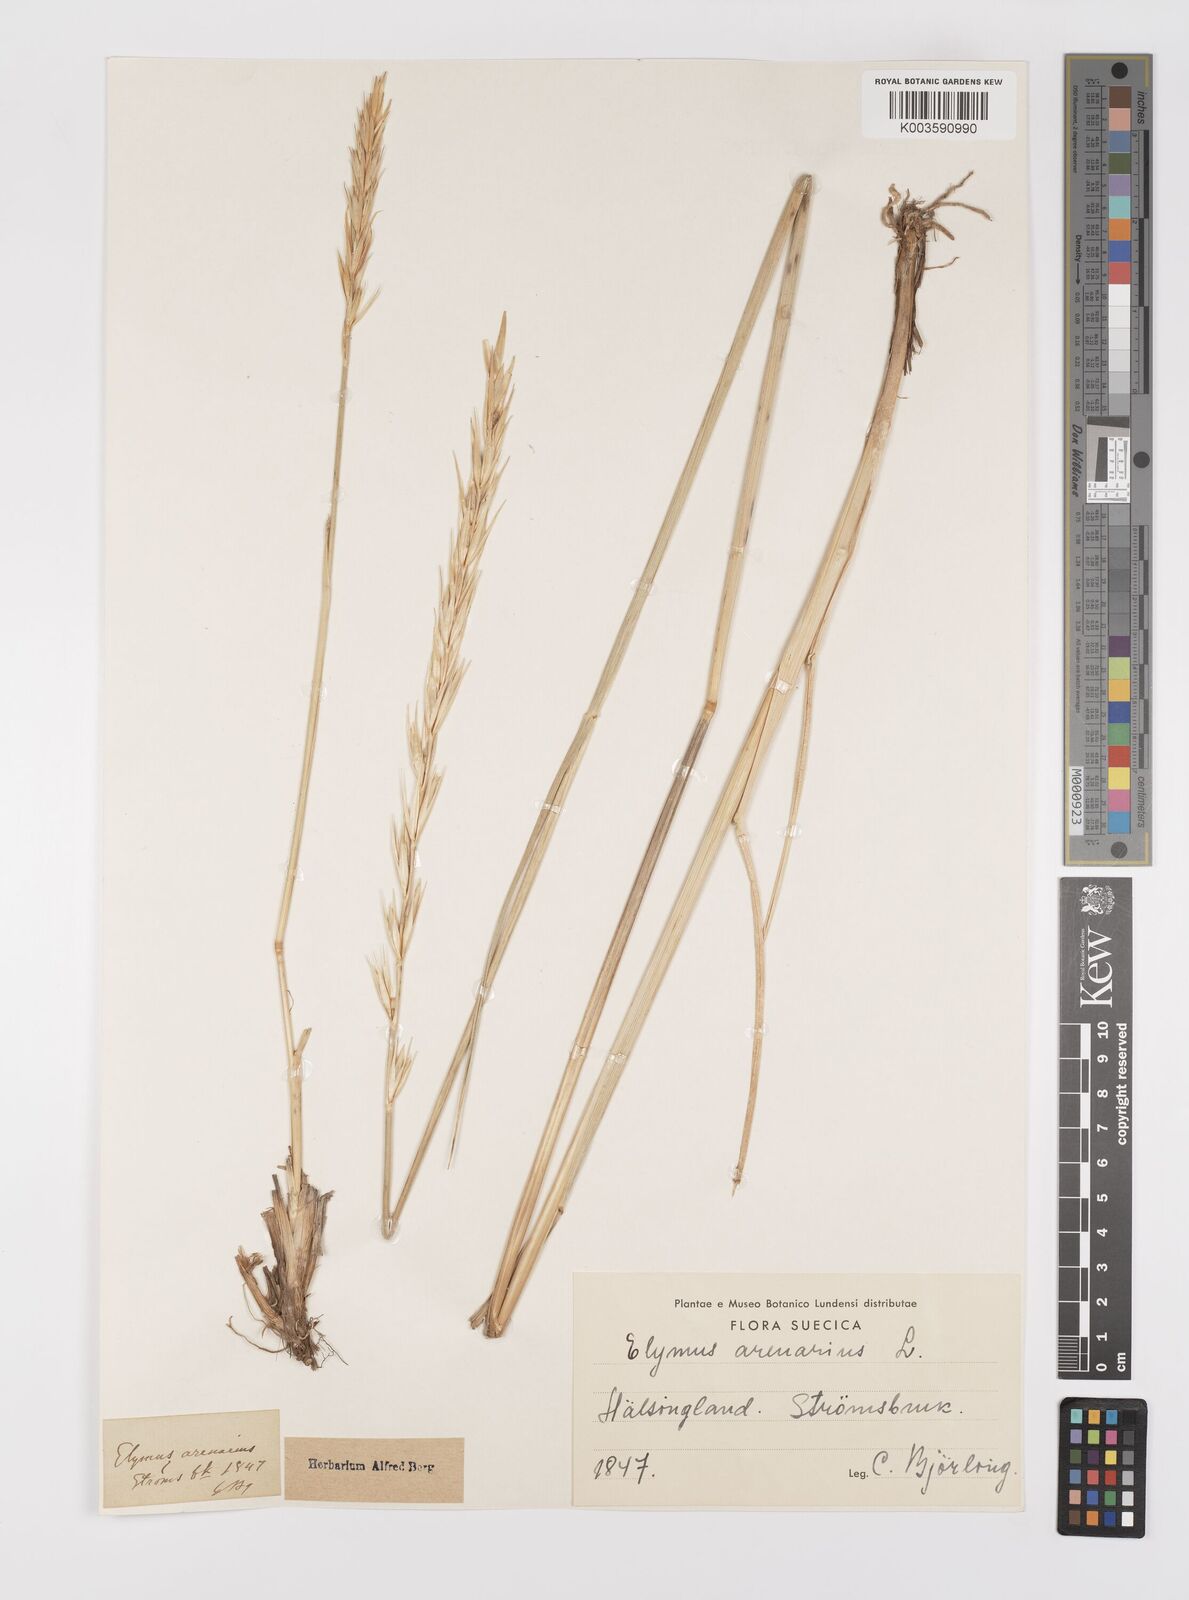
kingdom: Plantae
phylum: Tracheophyta
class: Liliopsida
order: Poales
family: Poaceae
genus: Leymus
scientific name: Leymus arenarius
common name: Lyme-grass
